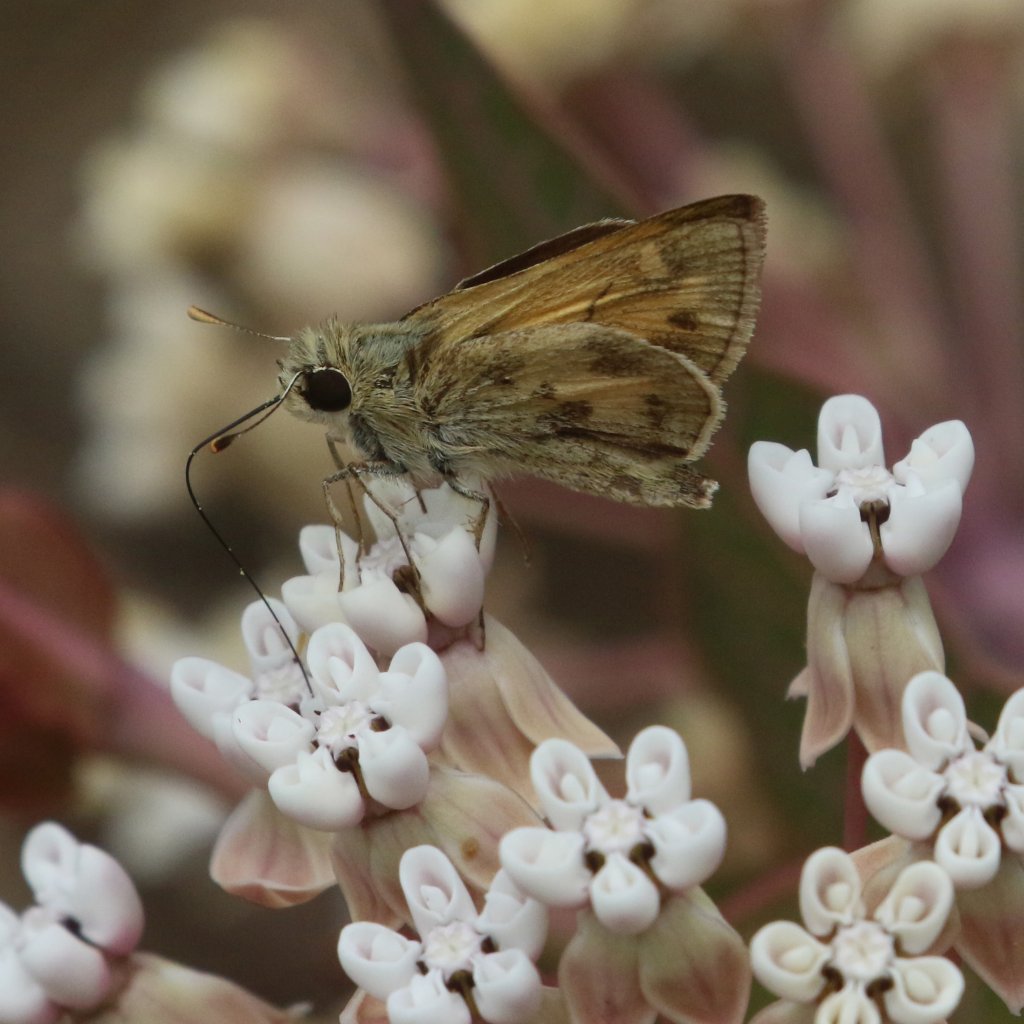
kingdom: Animalia
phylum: Arthropoda
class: Insecta
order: Lepidoptera
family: Hesperiidae
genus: Polites
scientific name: Polites vibex
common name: Whirlabout
